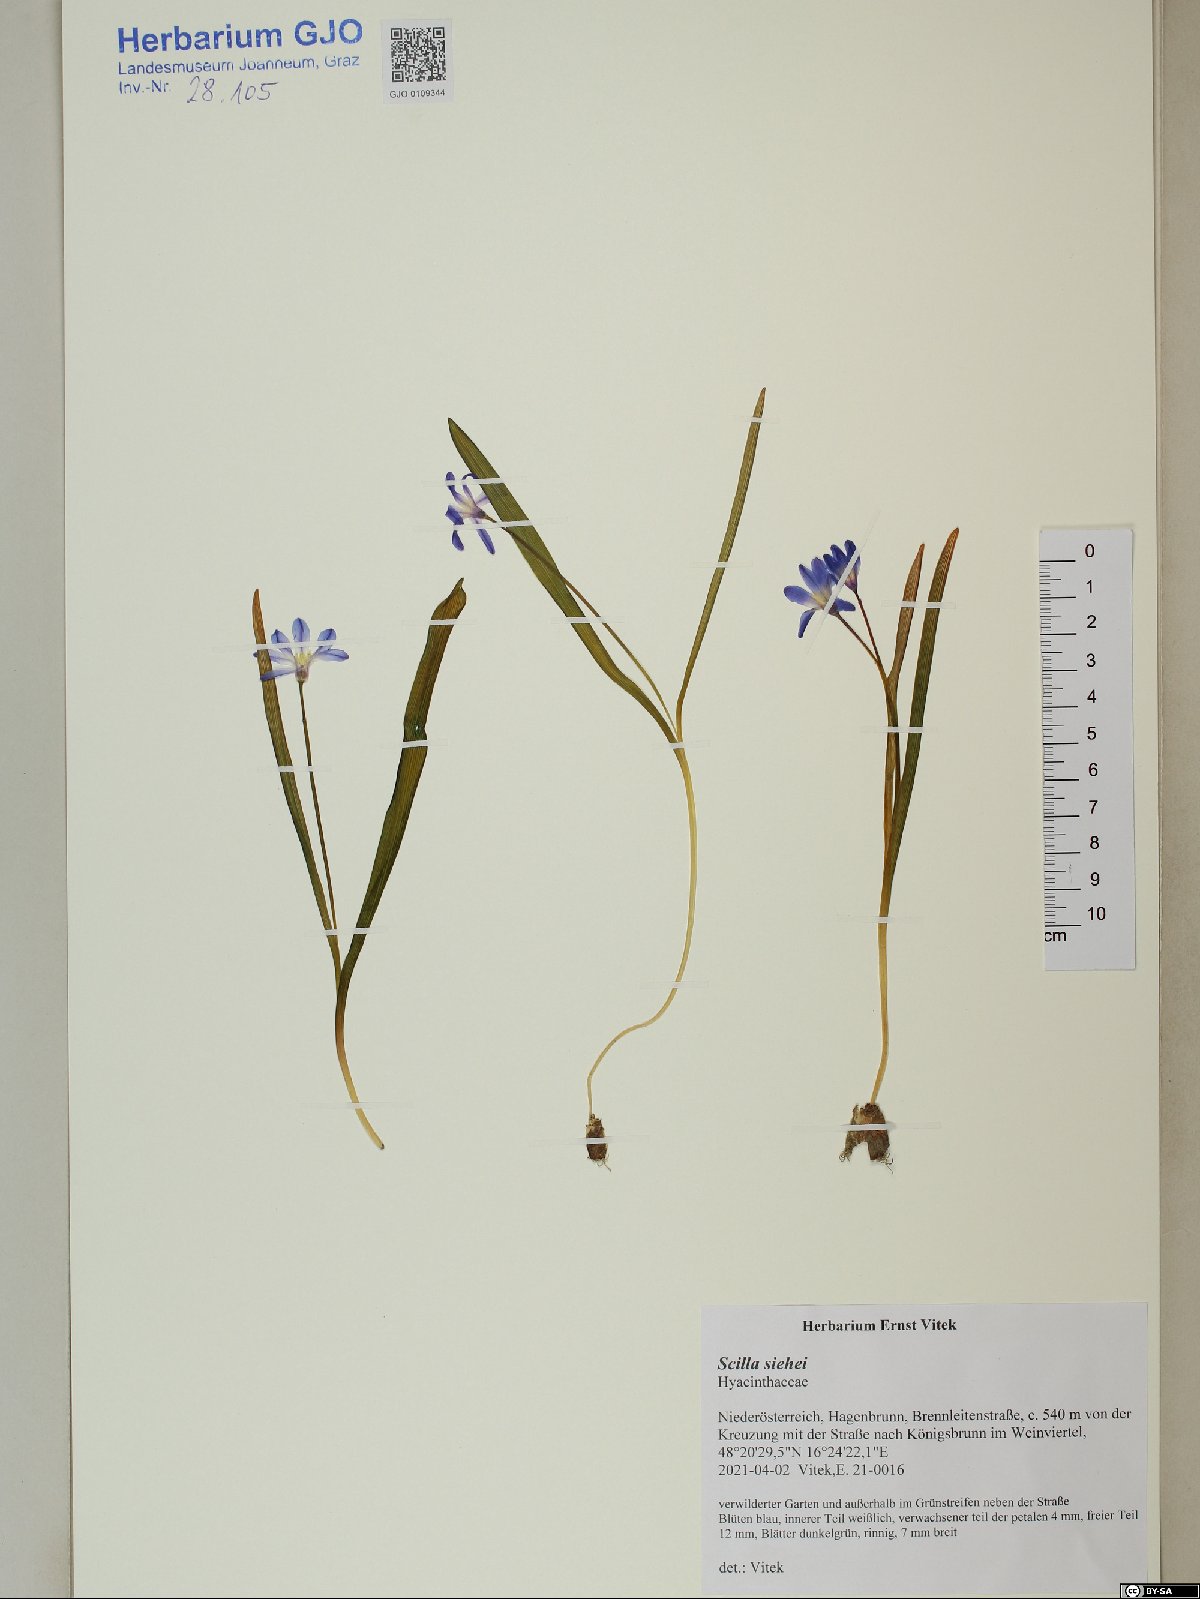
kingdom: Plantae
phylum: Tracheophyta
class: Liliopsida
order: Asparagales
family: Asparagaceae
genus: Scilla
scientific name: Scilla forbesii
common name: Glory-of-the-snow
